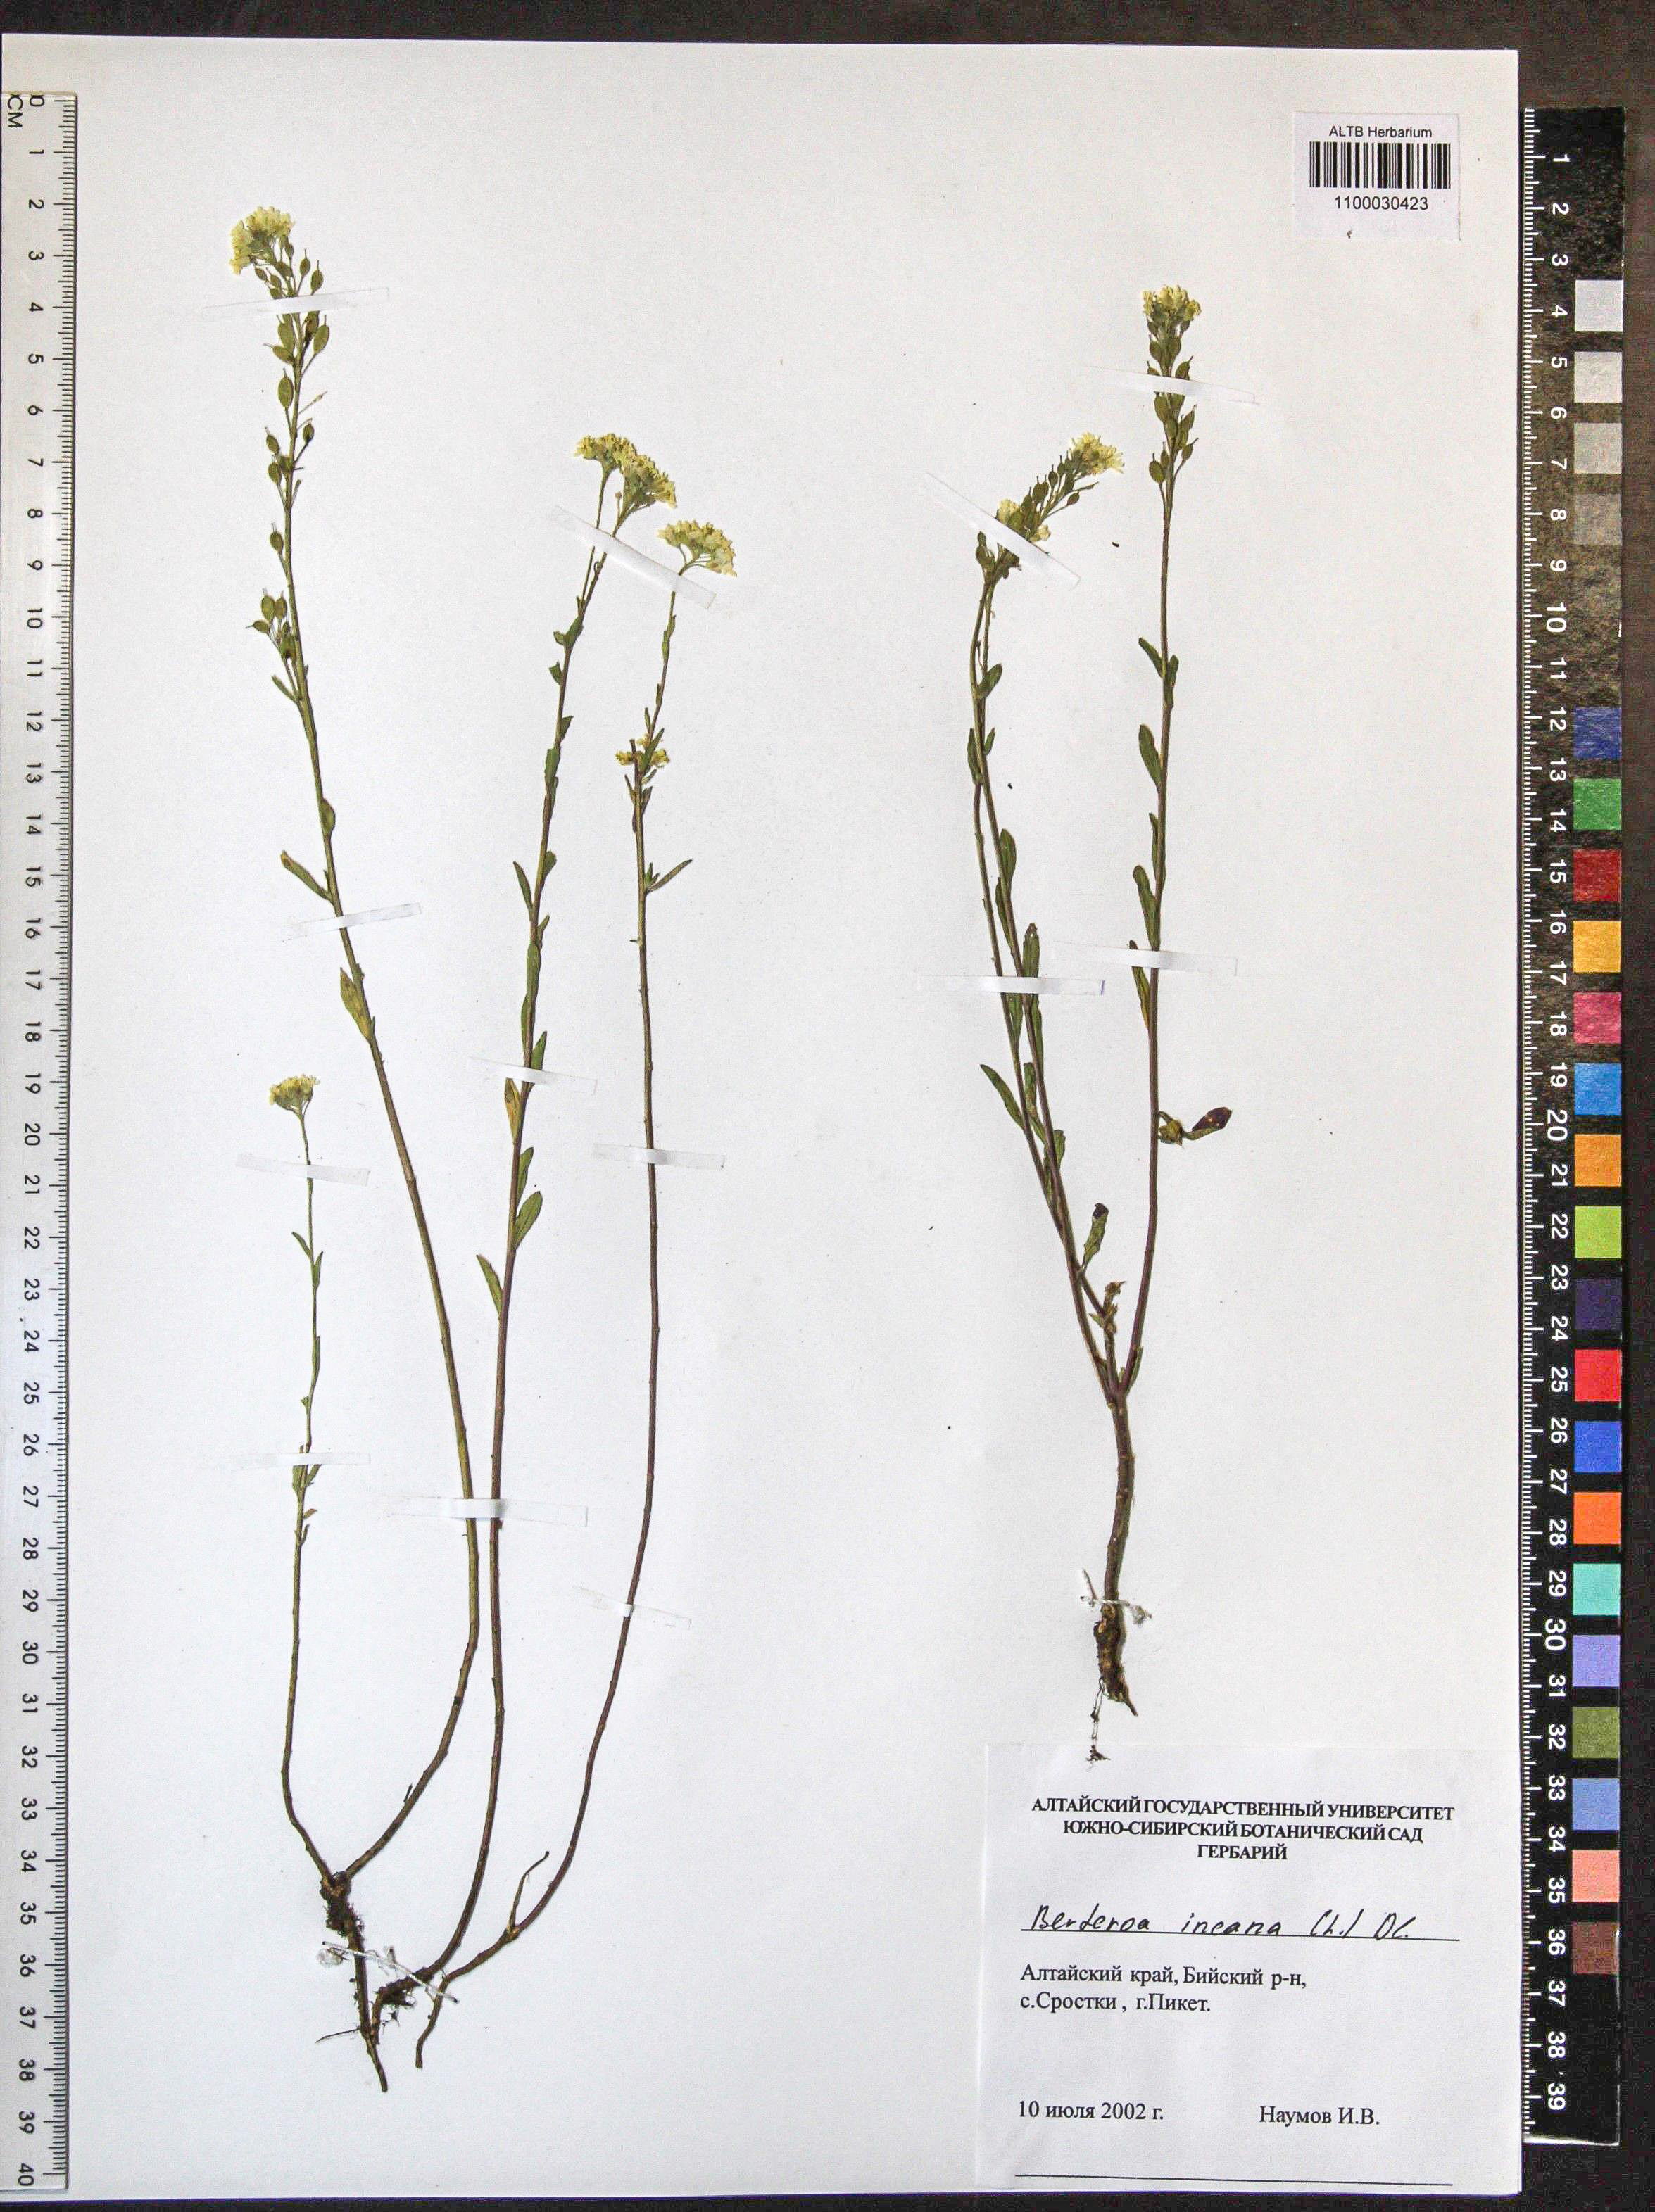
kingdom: Plantae
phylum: Tracheophyta
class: Magnoliopsida
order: Brassicales
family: Brassicaceae
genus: Berteroa
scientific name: Berteroa incana
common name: Hoary alison
